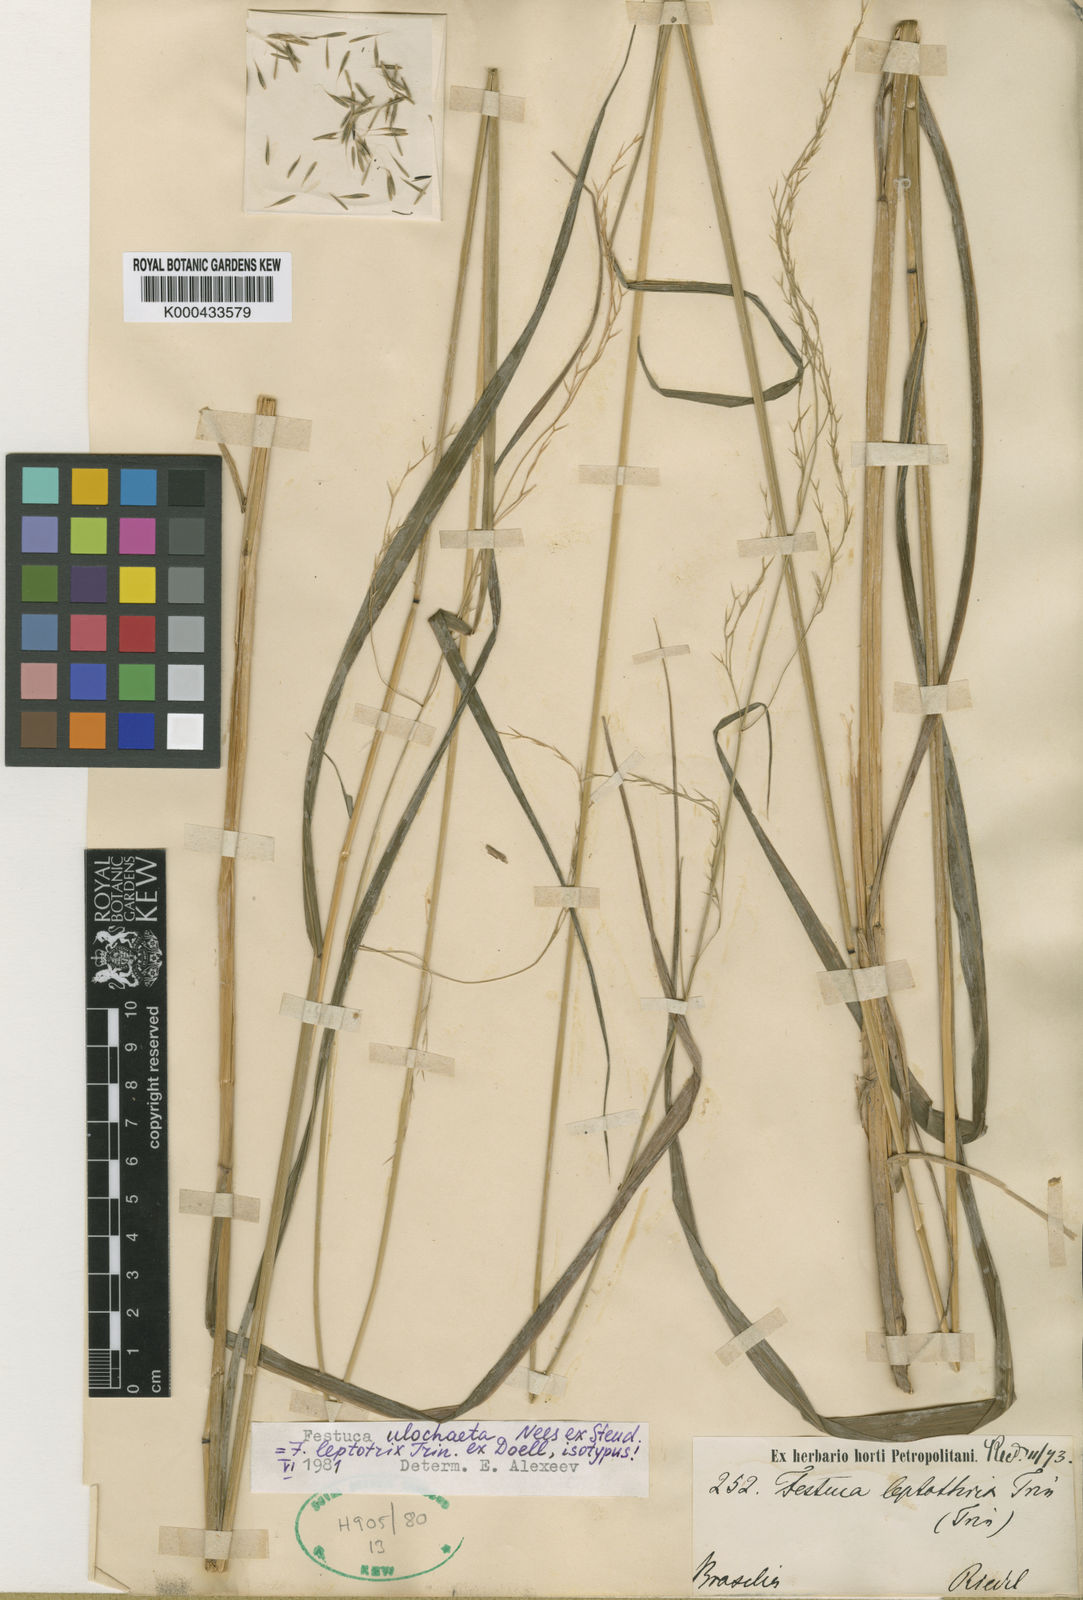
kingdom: Plantae
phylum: Tracheophyta
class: Liliopsida
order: Poales
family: Poaceae
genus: Festuca
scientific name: Festuca ulochaeta
